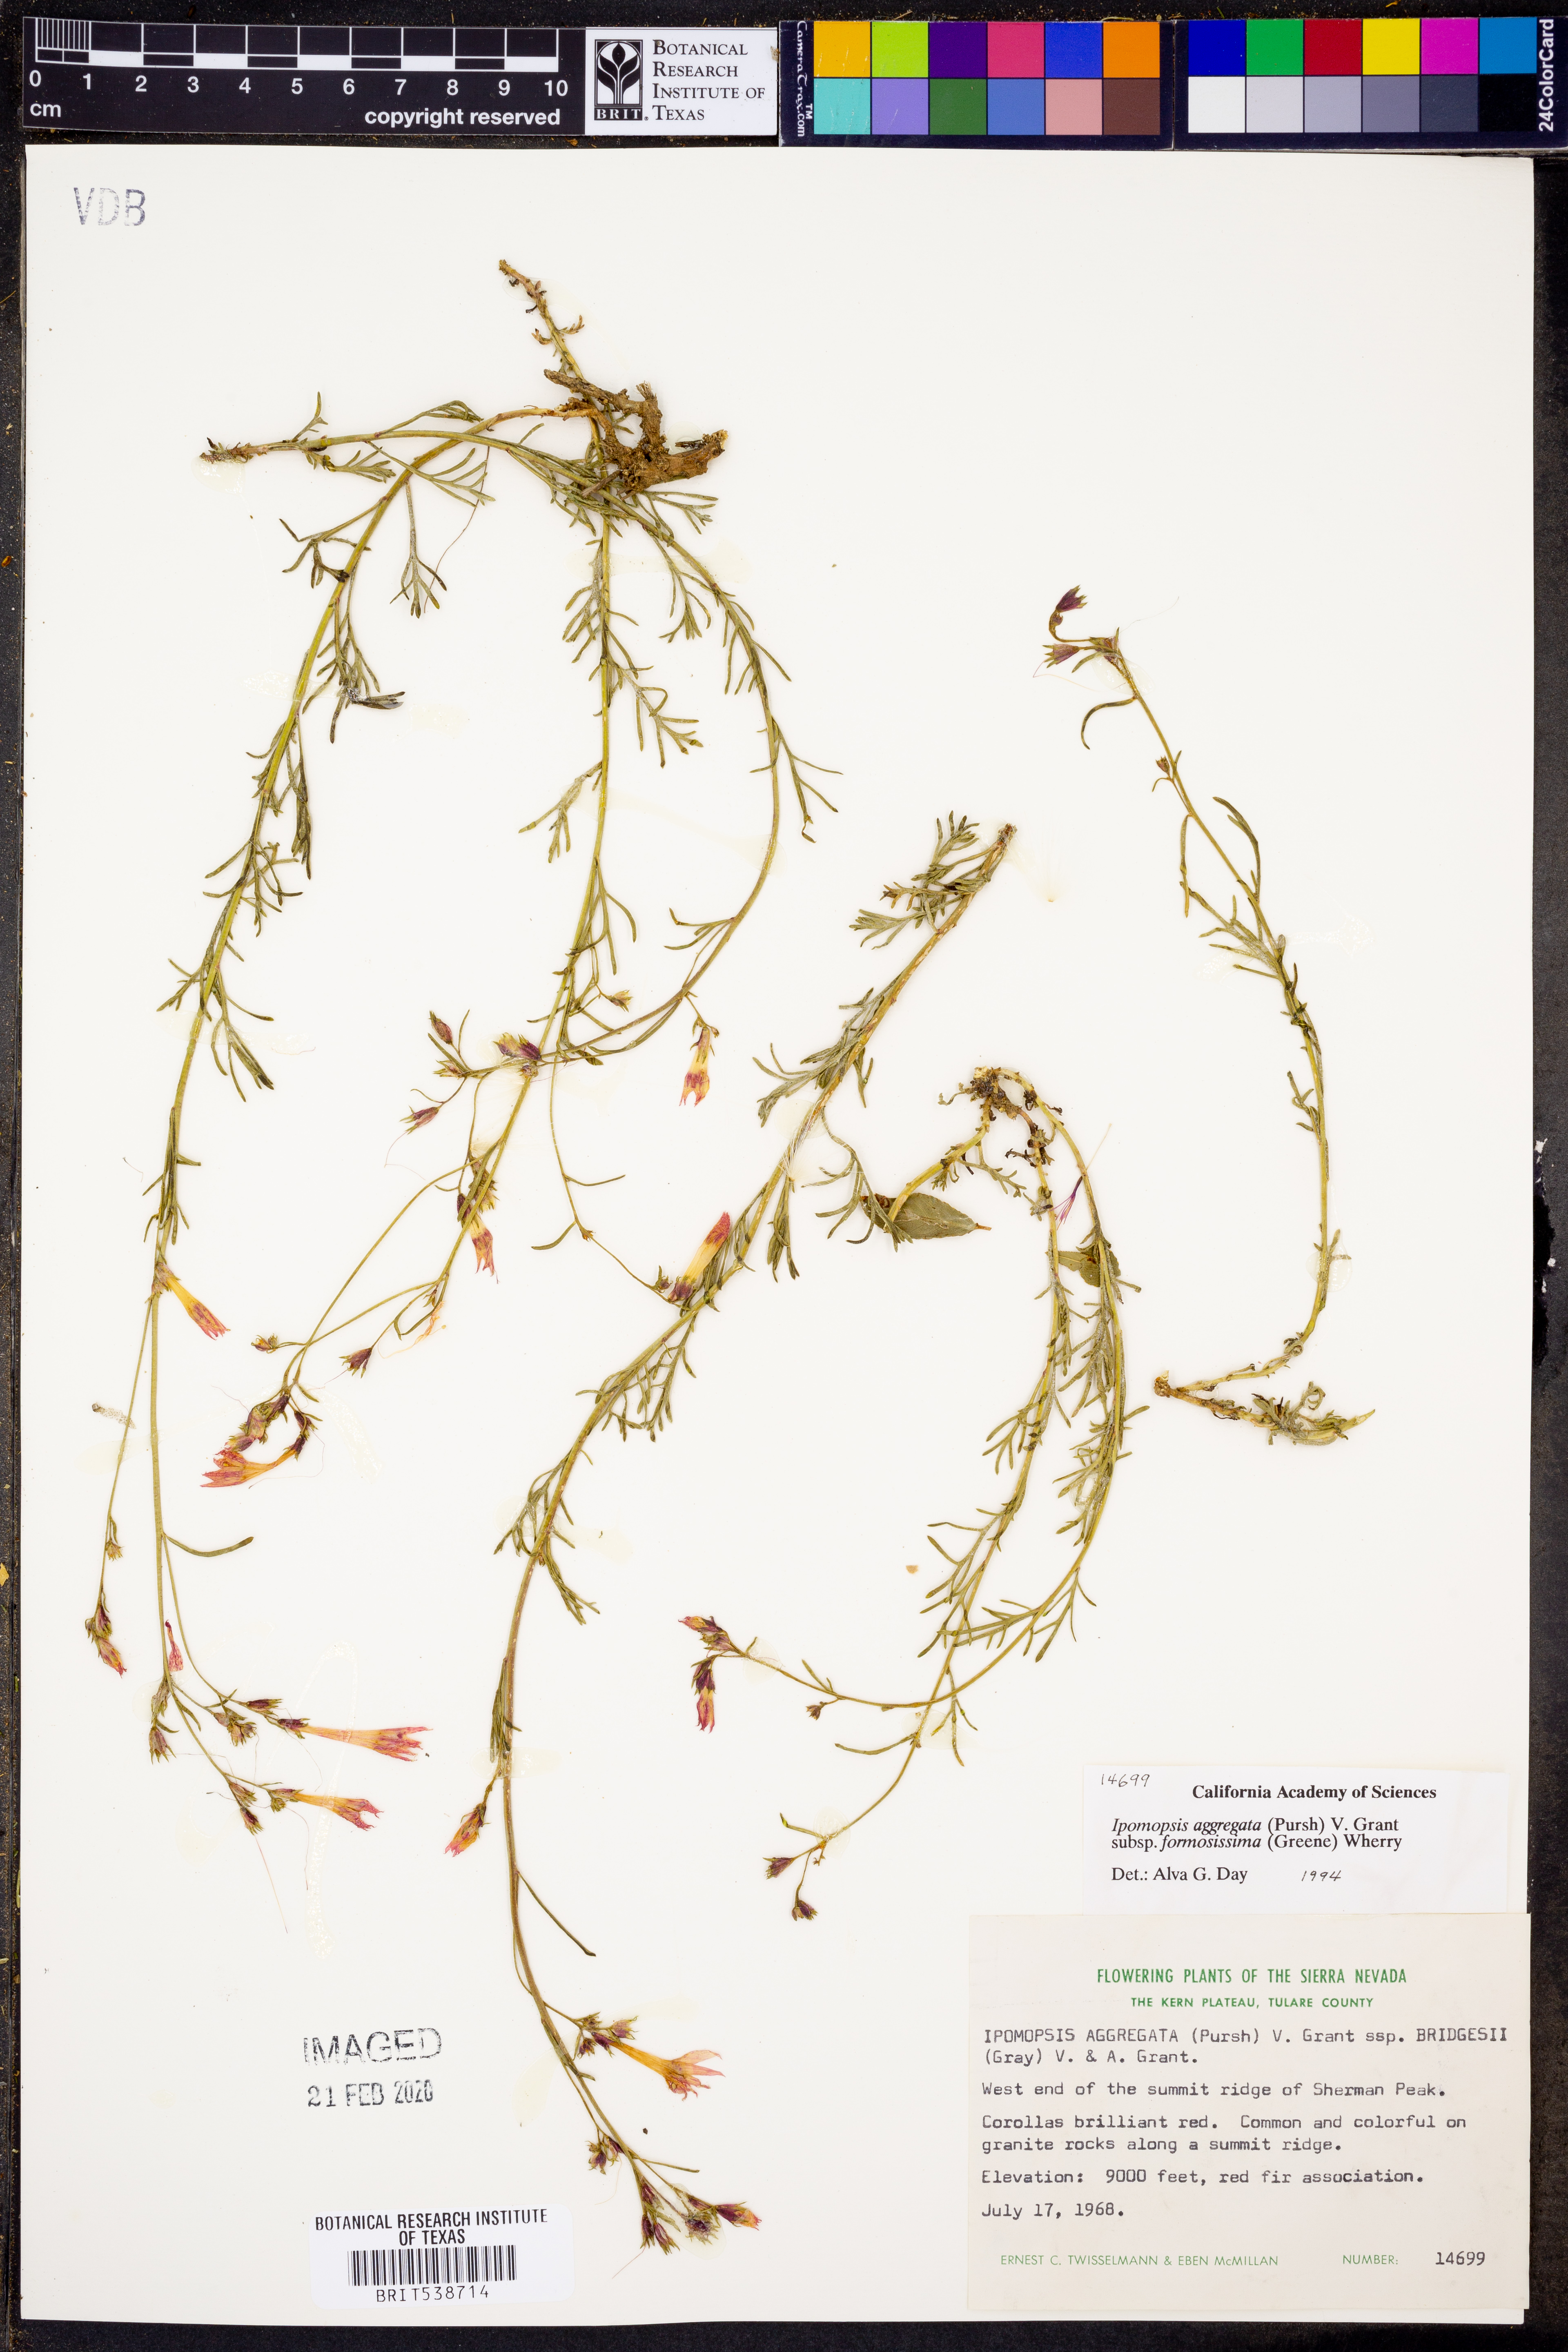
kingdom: Plantae
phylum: Tracheophyta
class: Magnoliopsida
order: Ericales
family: Polemoniaceae
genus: Ipomopsis
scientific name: Ipomopsis aggregata
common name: Scarlet gilia
